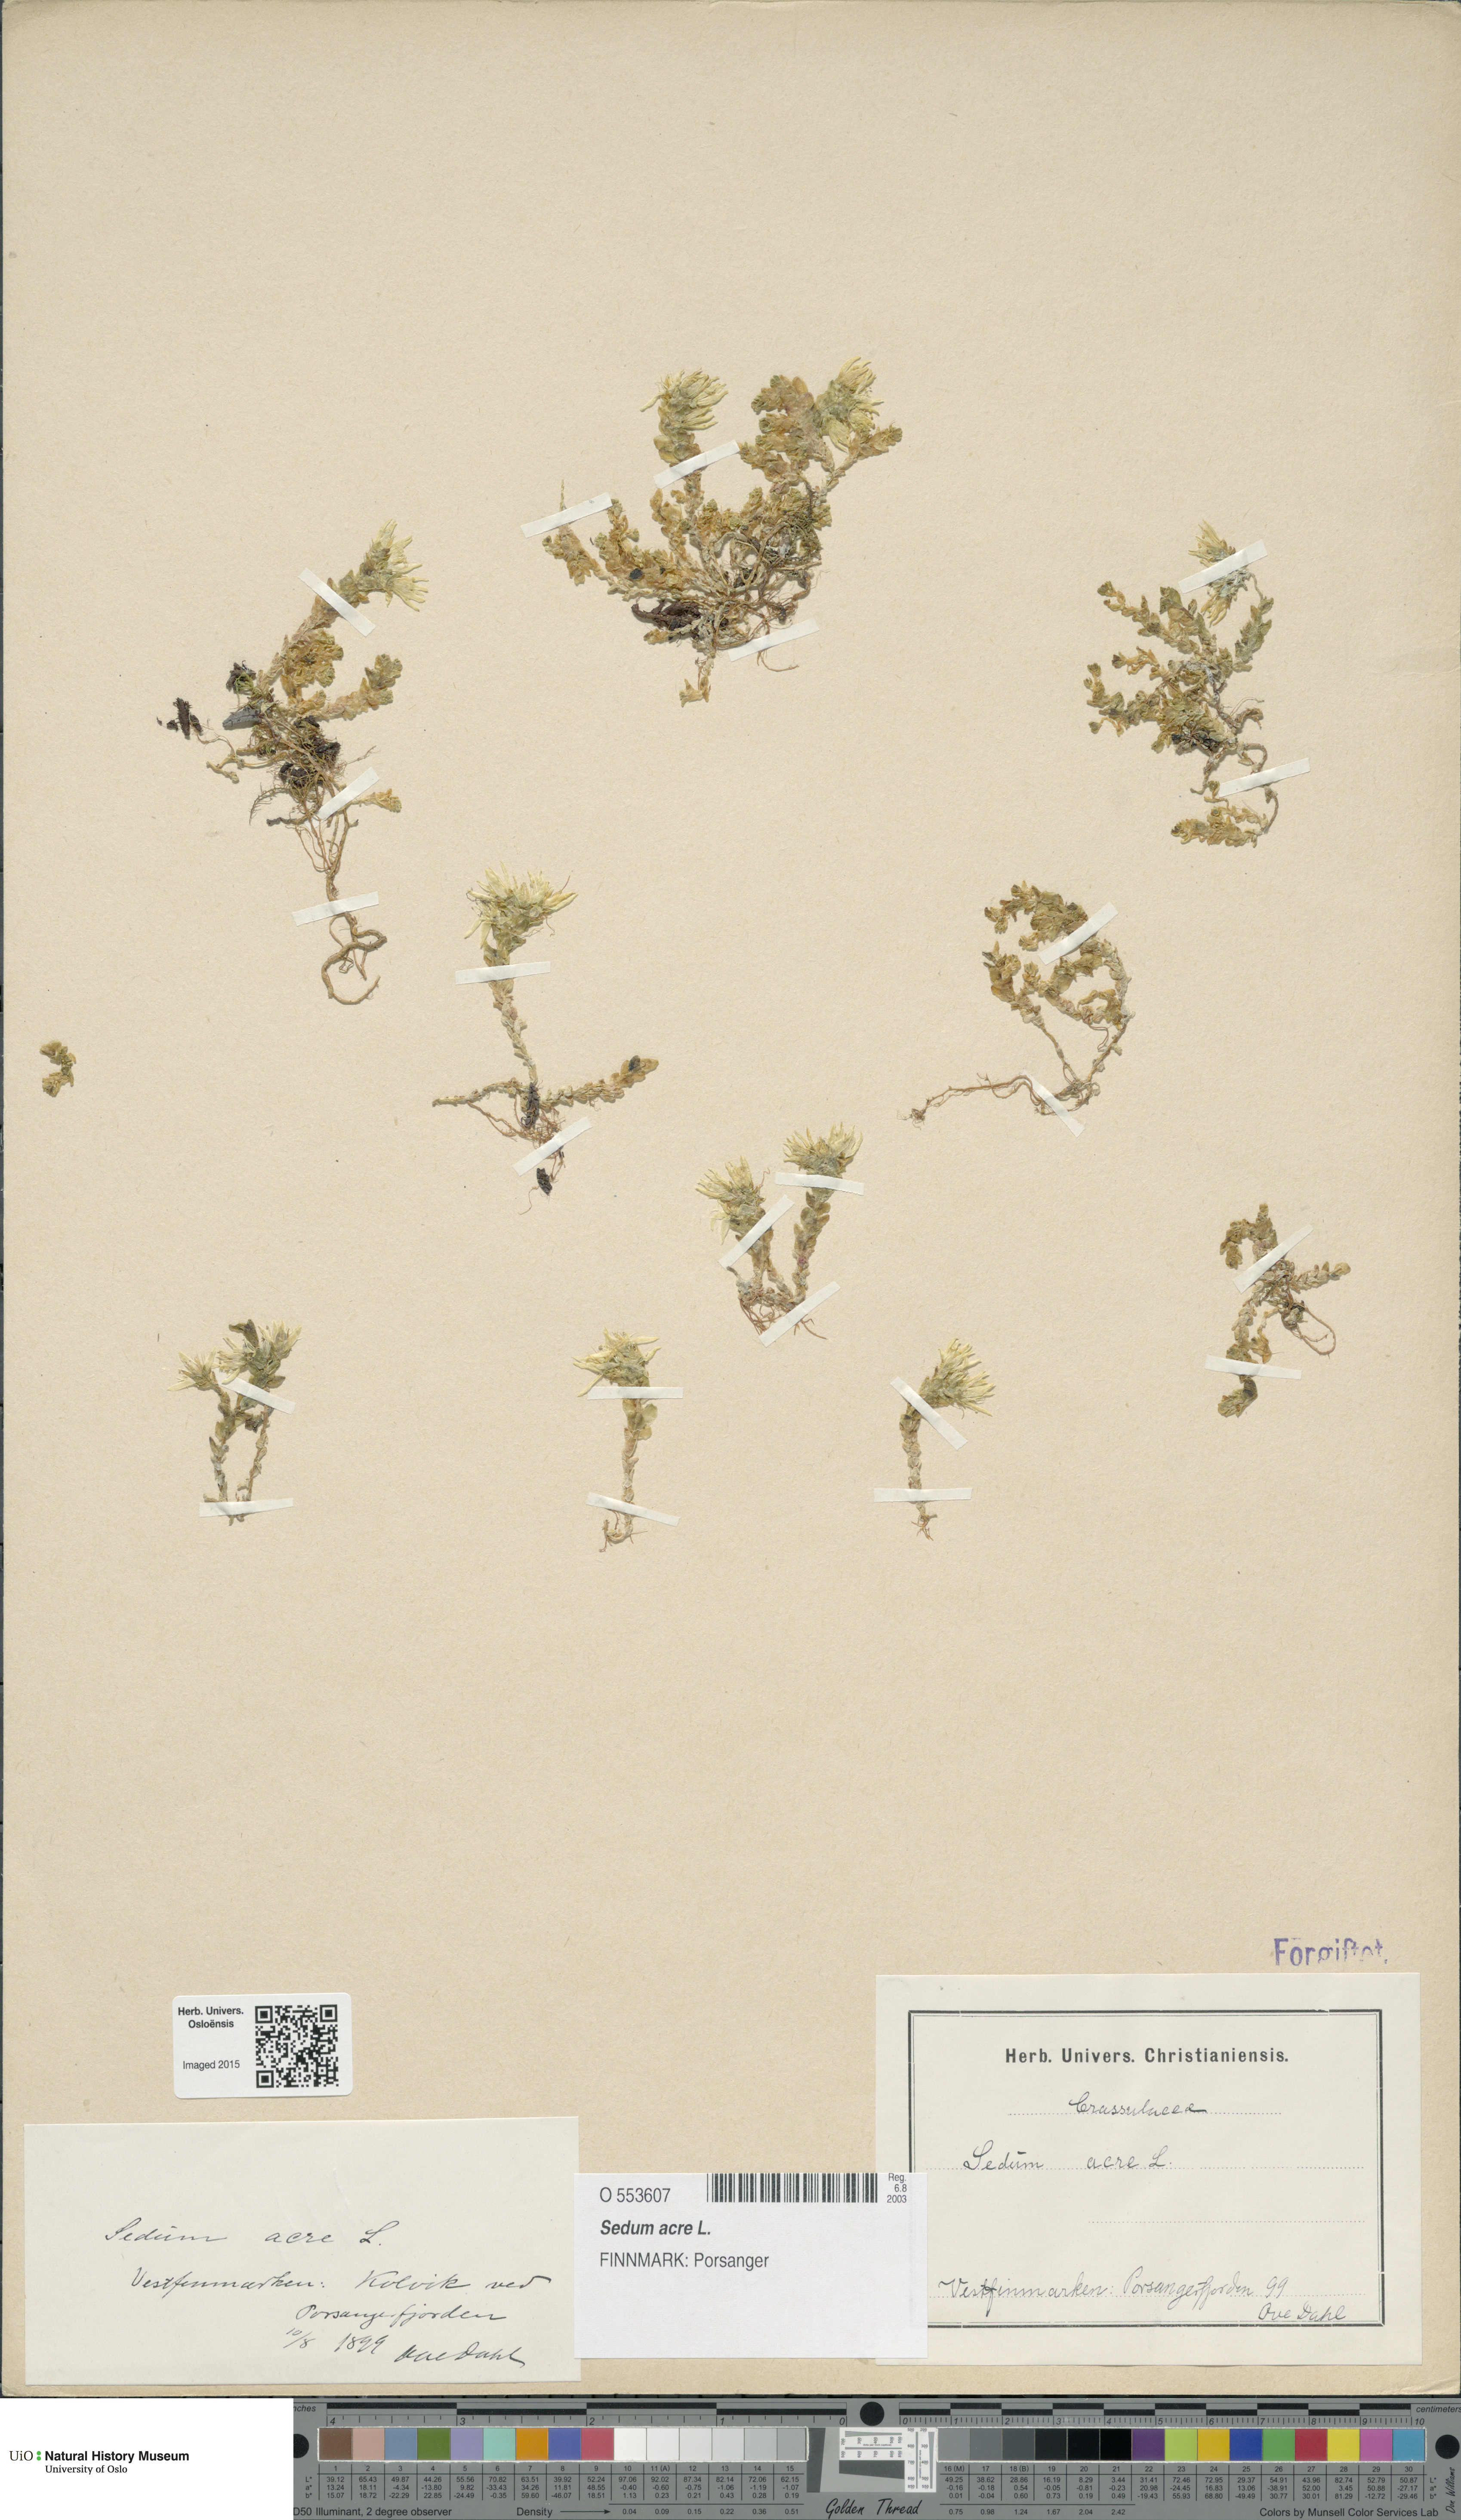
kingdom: Plantae
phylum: Tracheophyta
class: Magnoliopsida
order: Saxifragales
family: Crassulaceae
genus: Sedum
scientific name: Sedum acre
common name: Biting stonecrop
